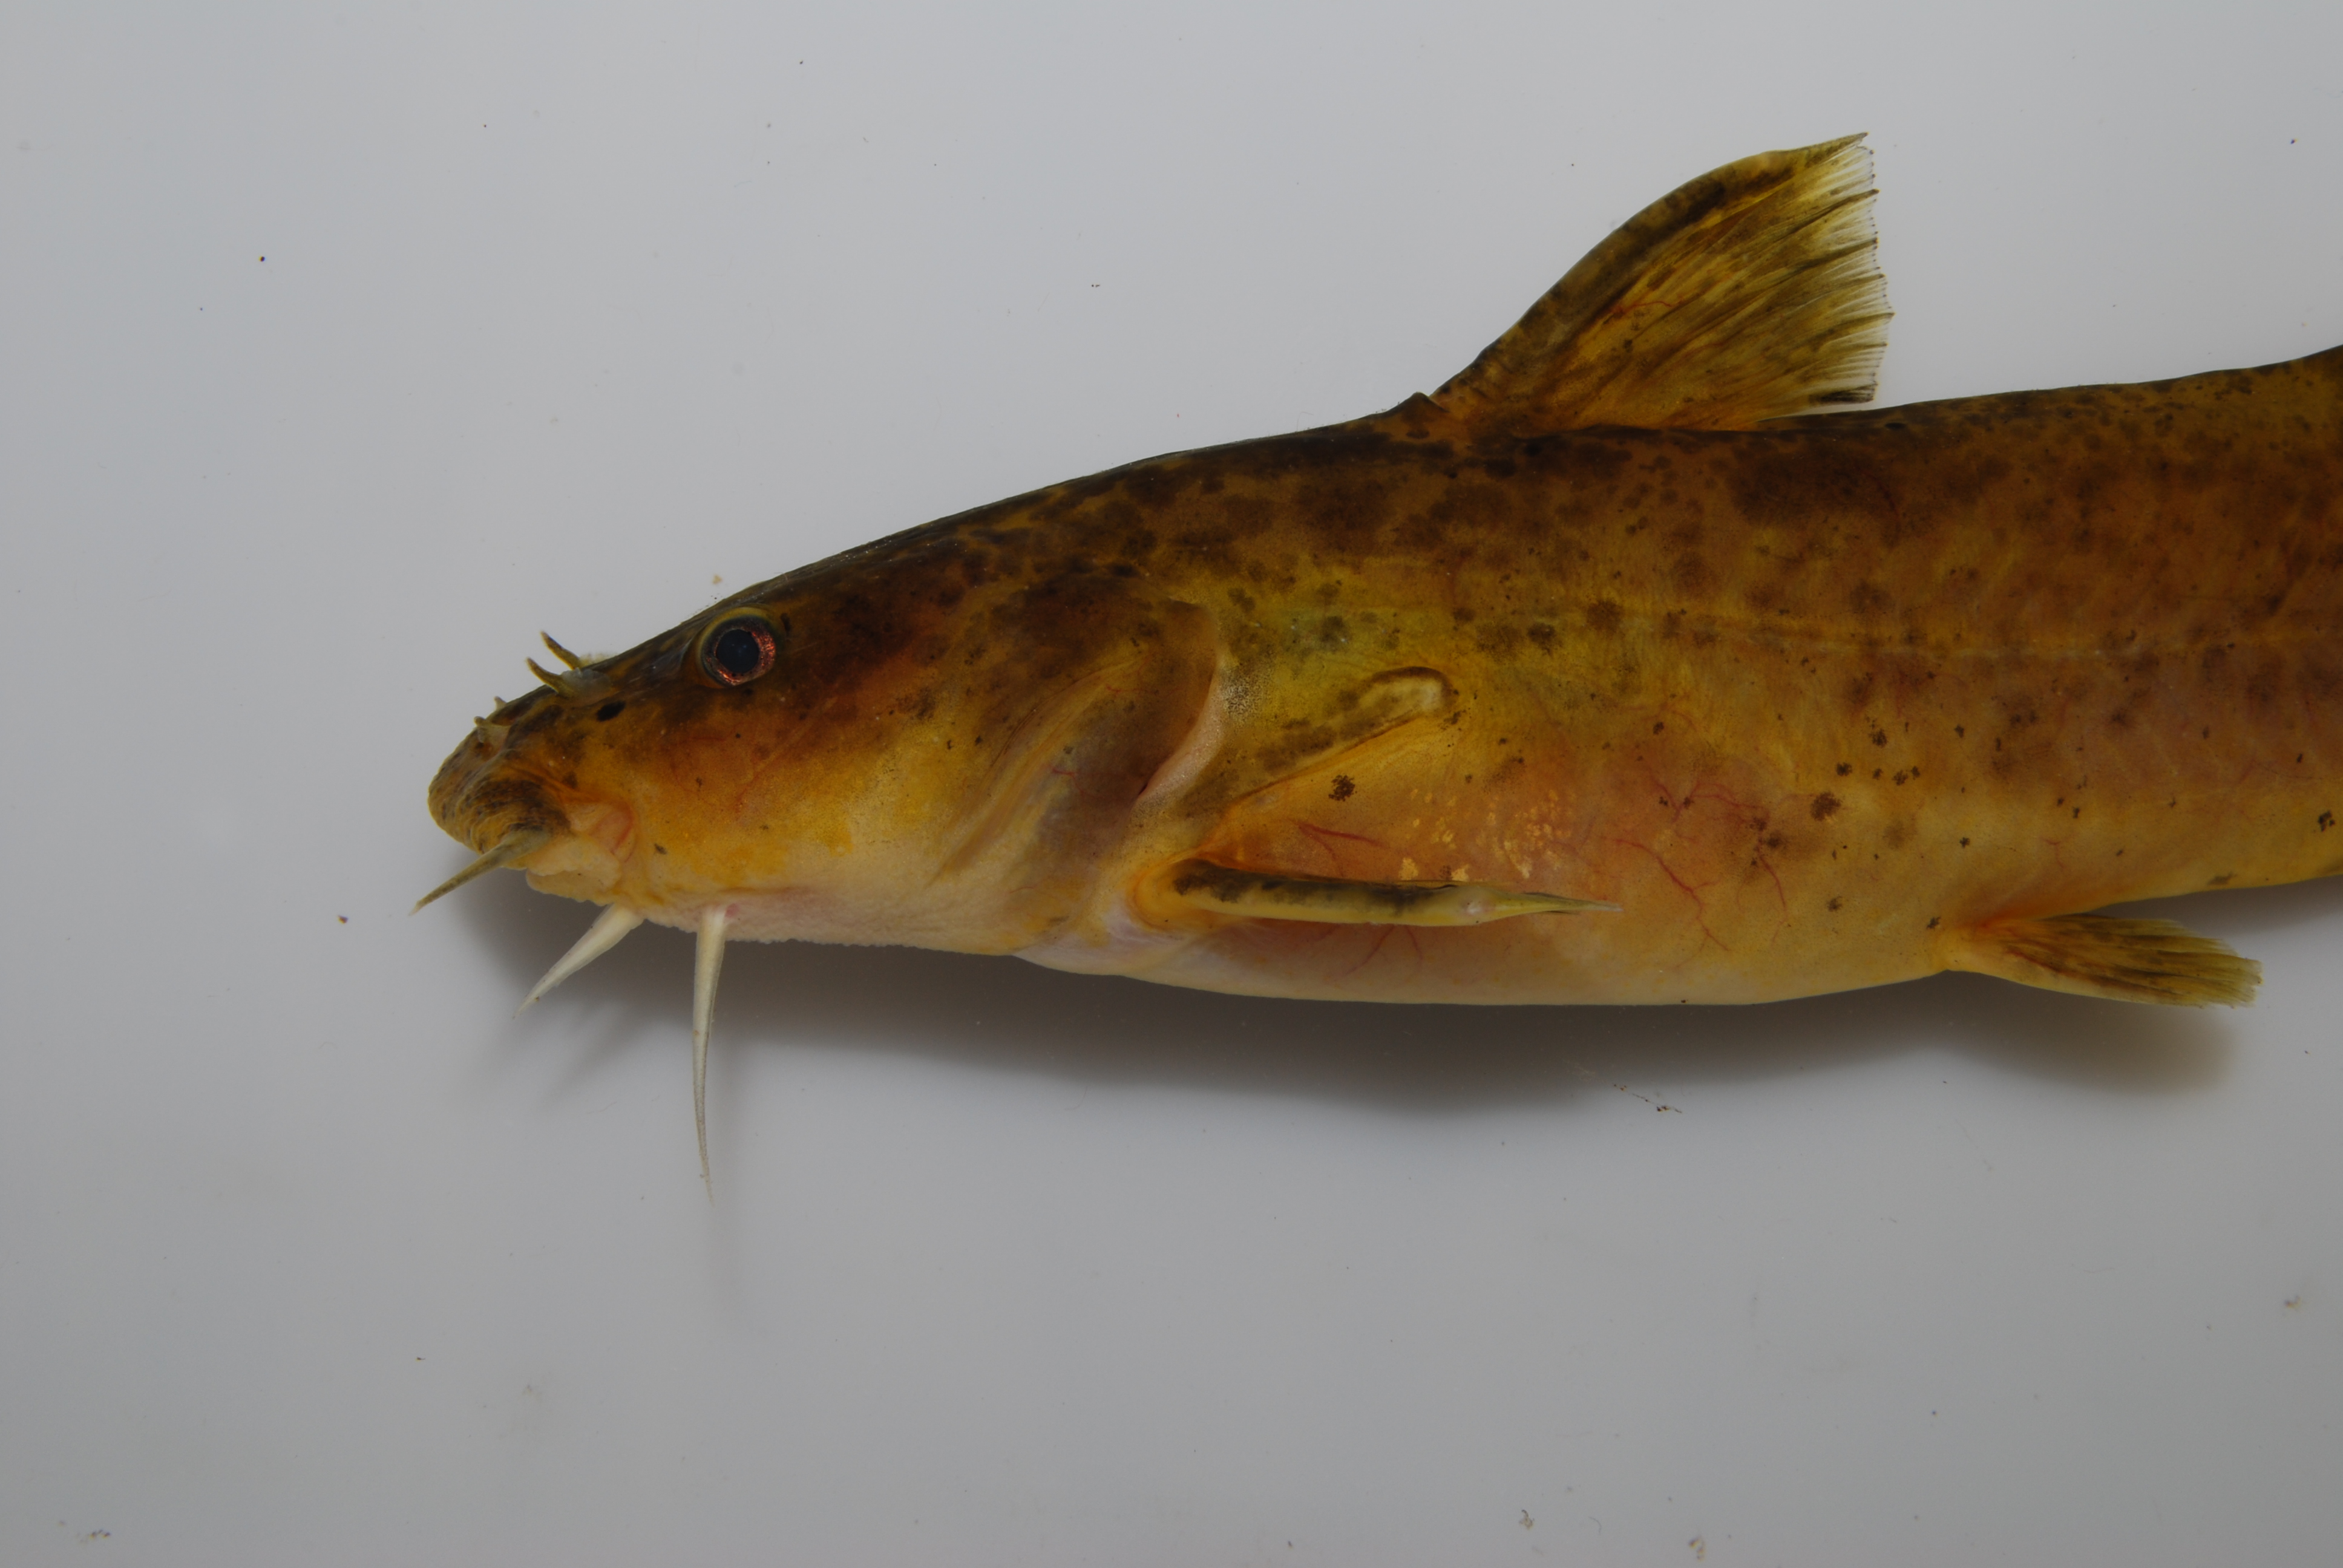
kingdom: Animalia
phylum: Chordata
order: Siluriformes
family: Austroglanididae
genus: Austroglanis
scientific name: Austroglanis gilli
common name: Clanwilliam rock-catfish
